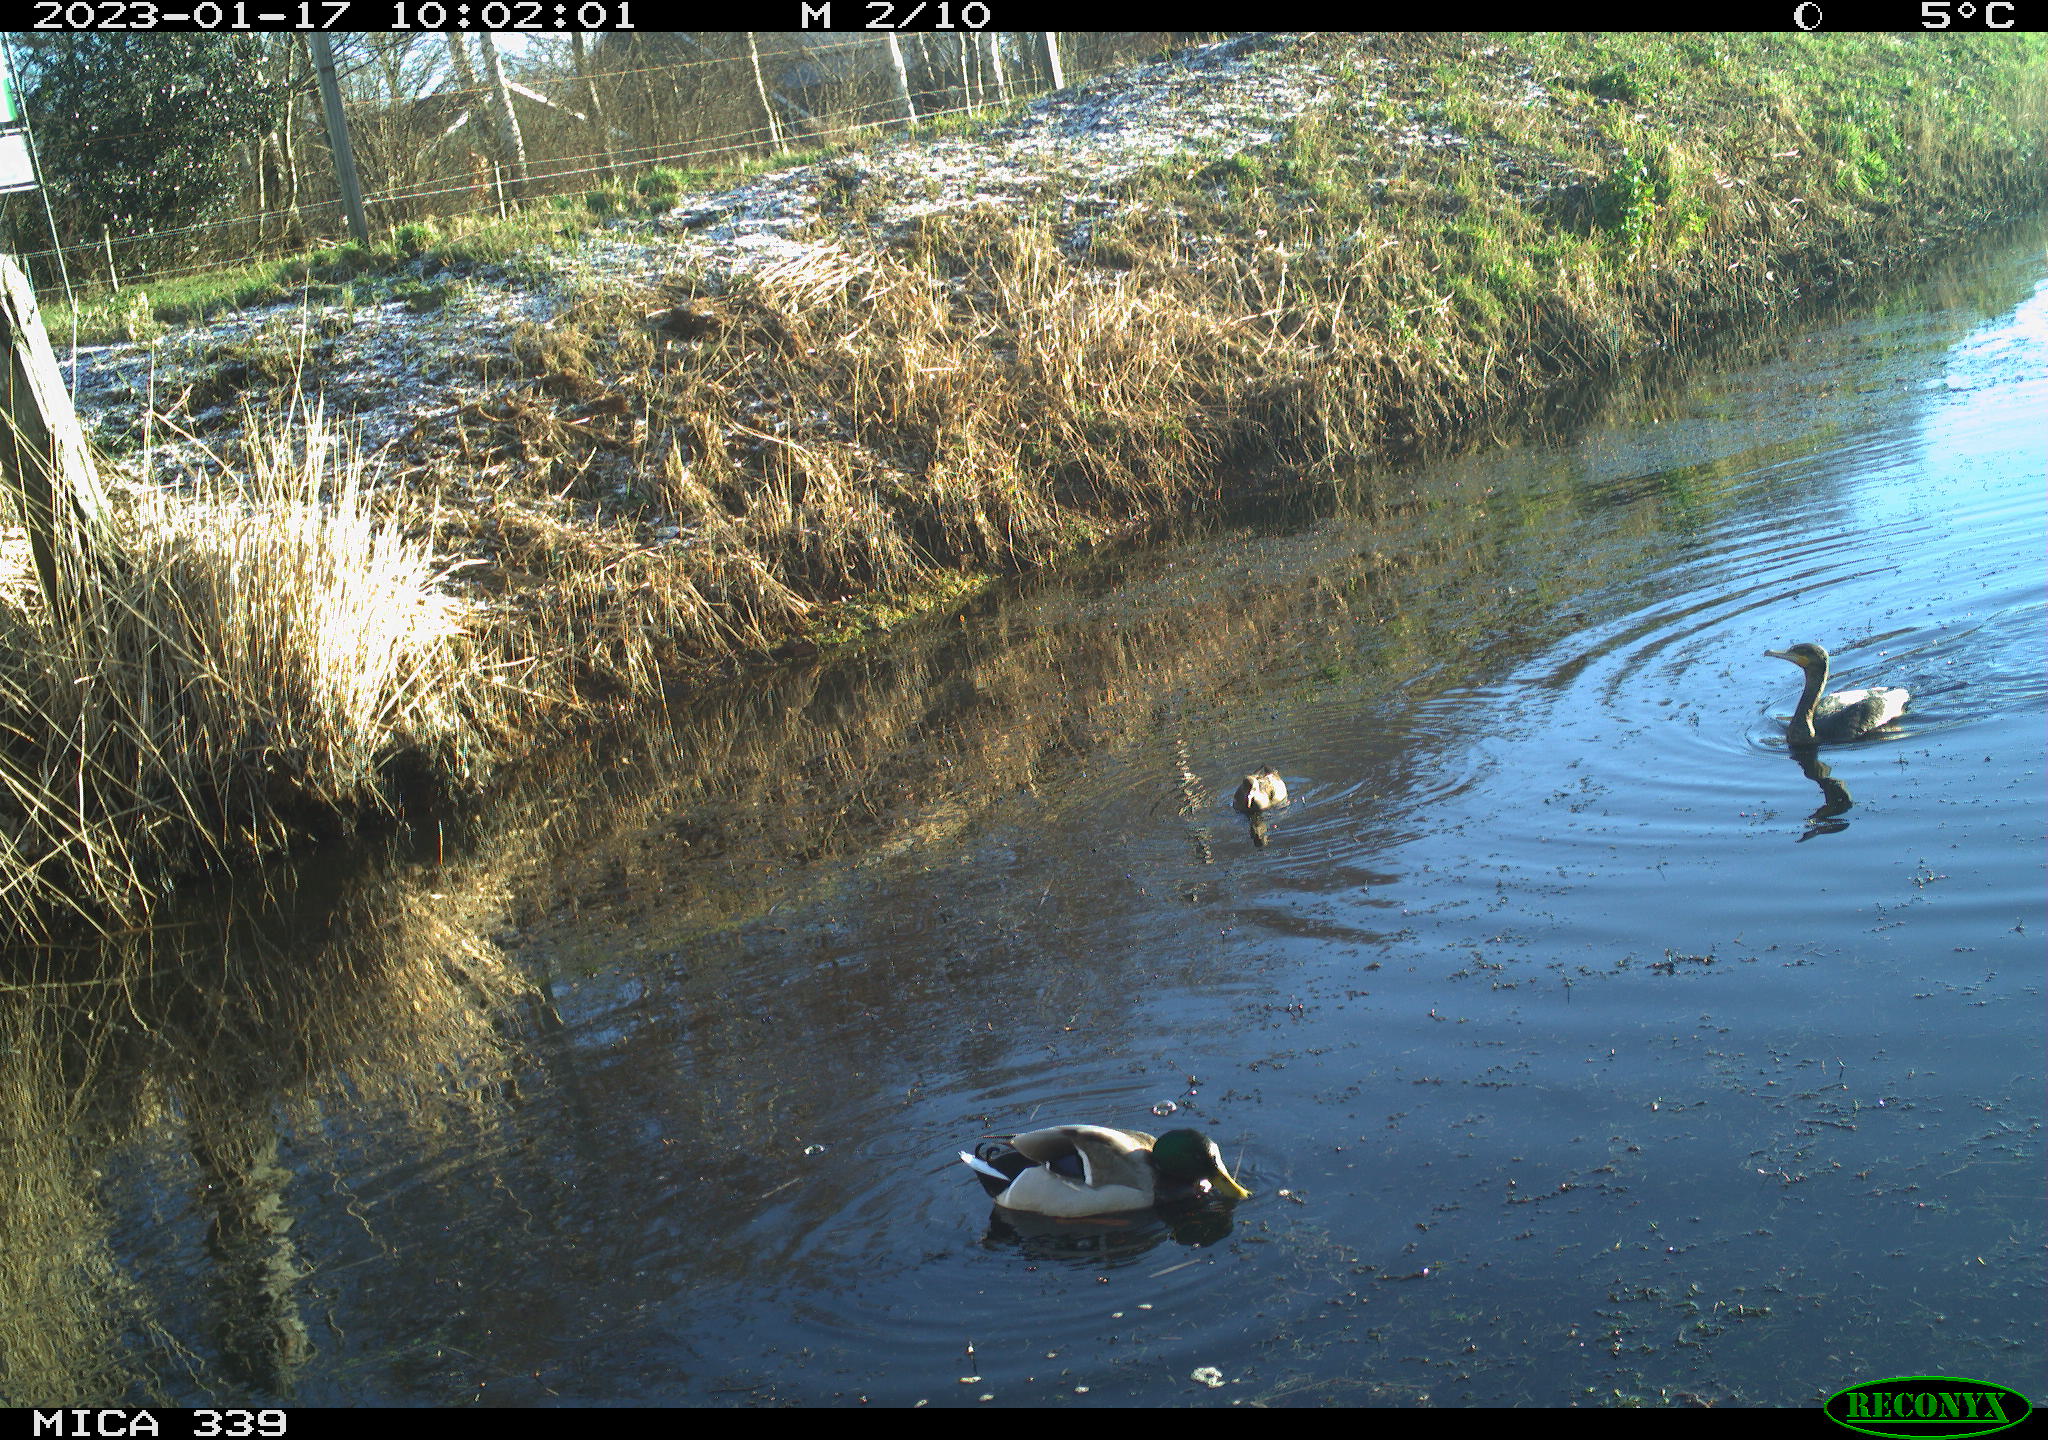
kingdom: Animalia
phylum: Chordata
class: Aves
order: Anseriformes
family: Anatidae
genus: Anas
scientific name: Anas
